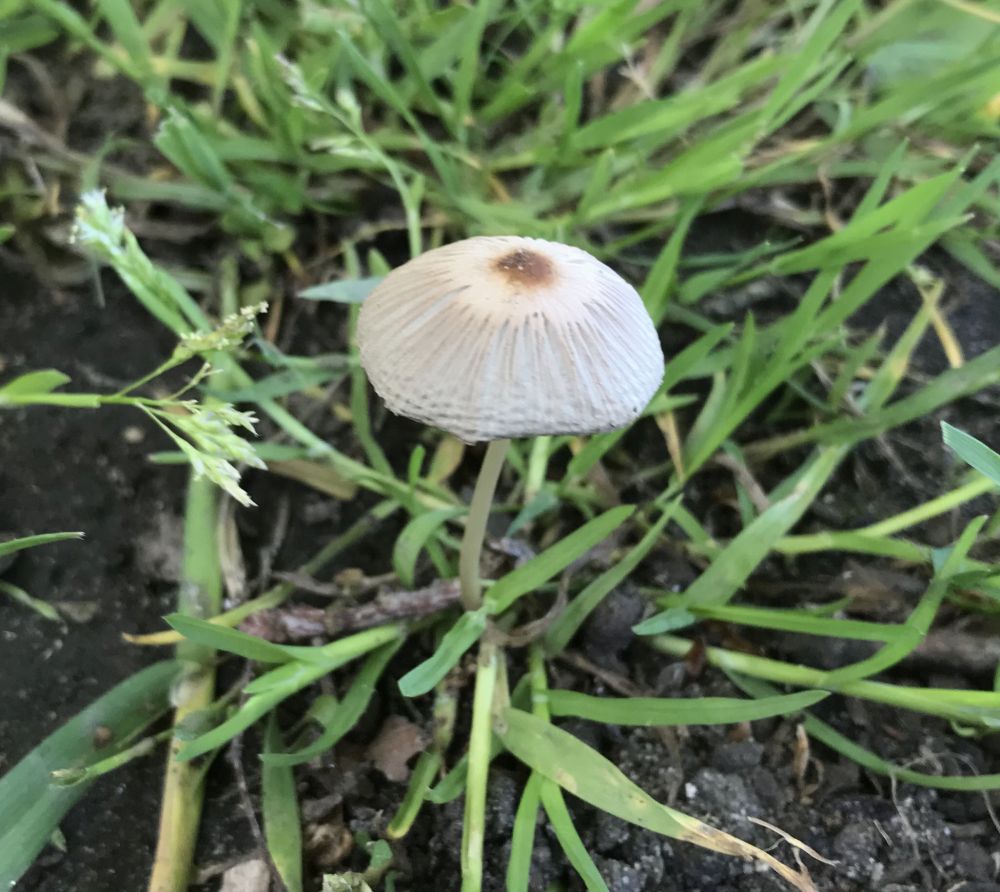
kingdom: Fungi
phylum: Basidiomycota
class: Agaricomycetes
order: Agaricales
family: Psathyrellaceae
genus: Parasola
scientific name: Parasola
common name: hjulhat
